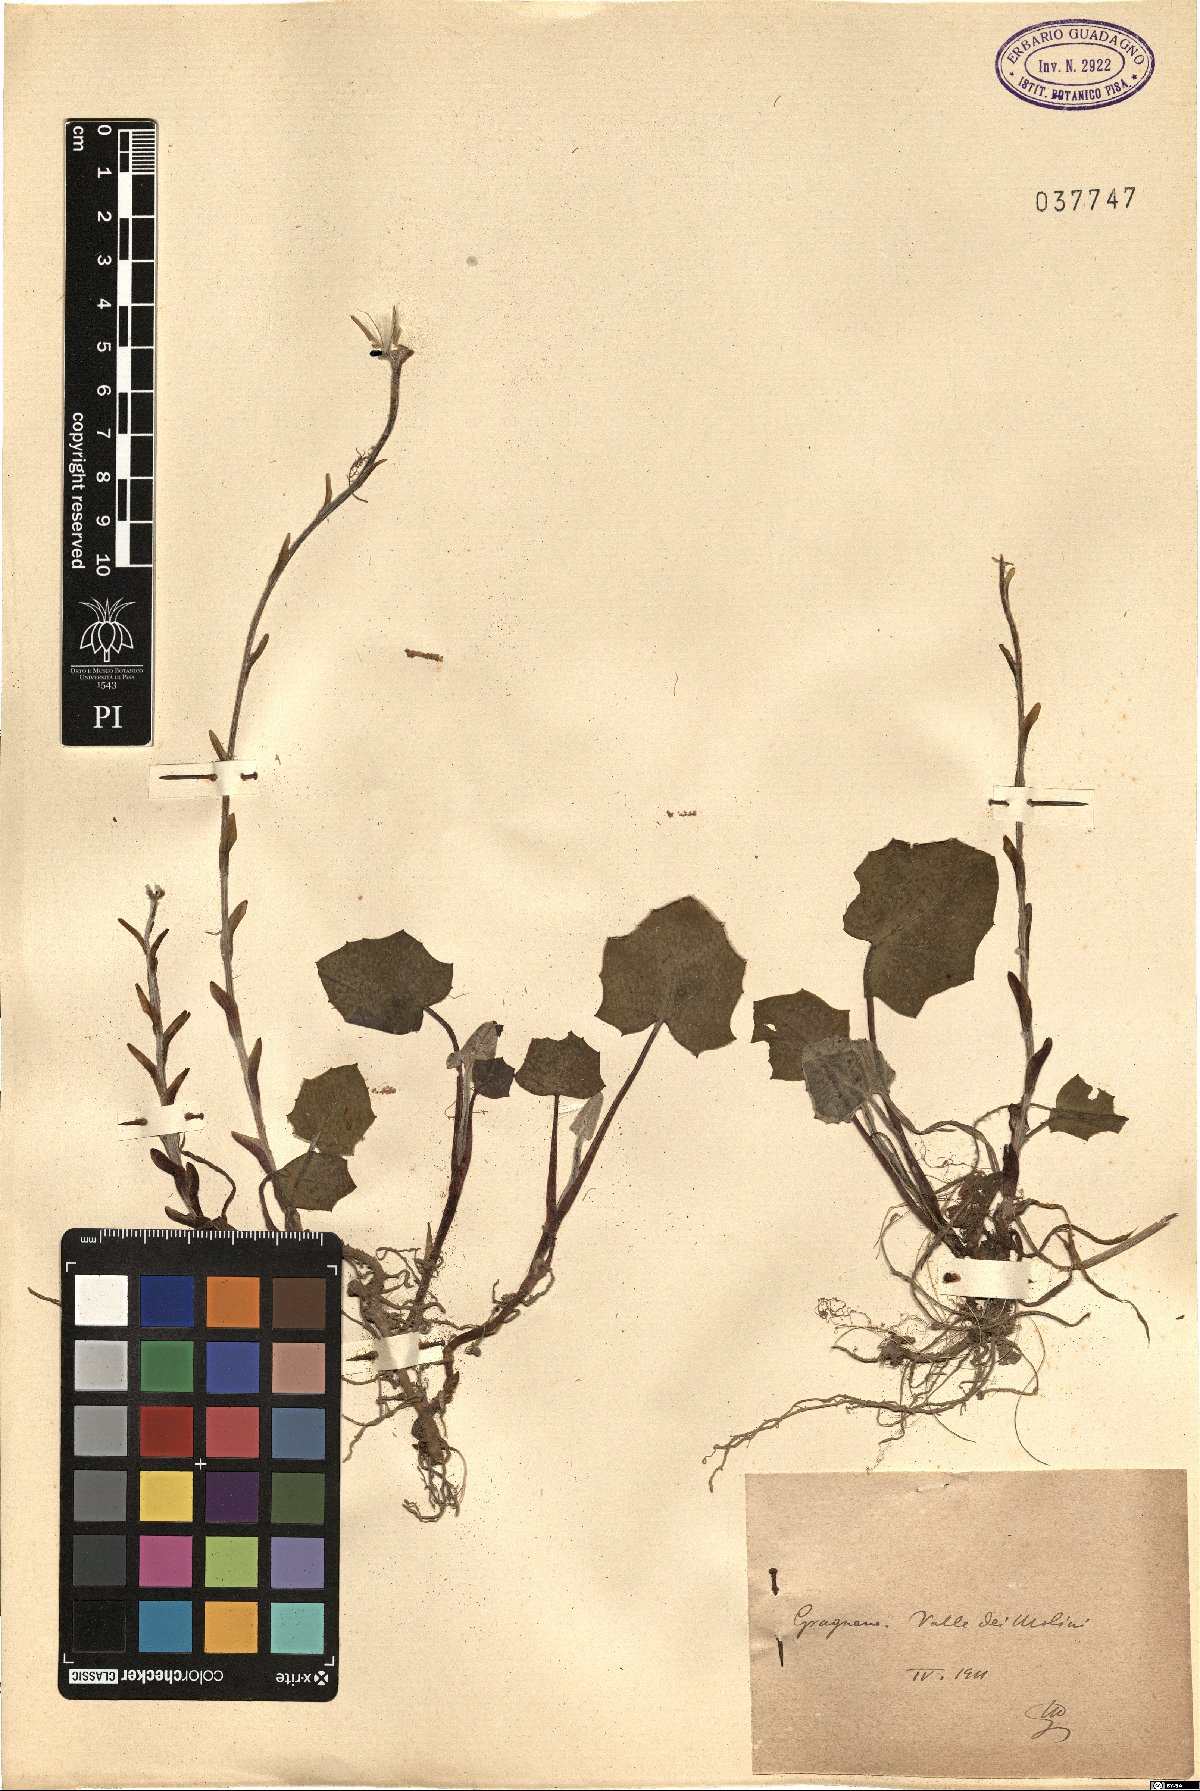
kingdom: Plantae
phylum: Tracheophyta
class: Magnoliopsida
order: Asterales
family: Asteraceae
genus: Tussilago
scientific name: Tussilago
